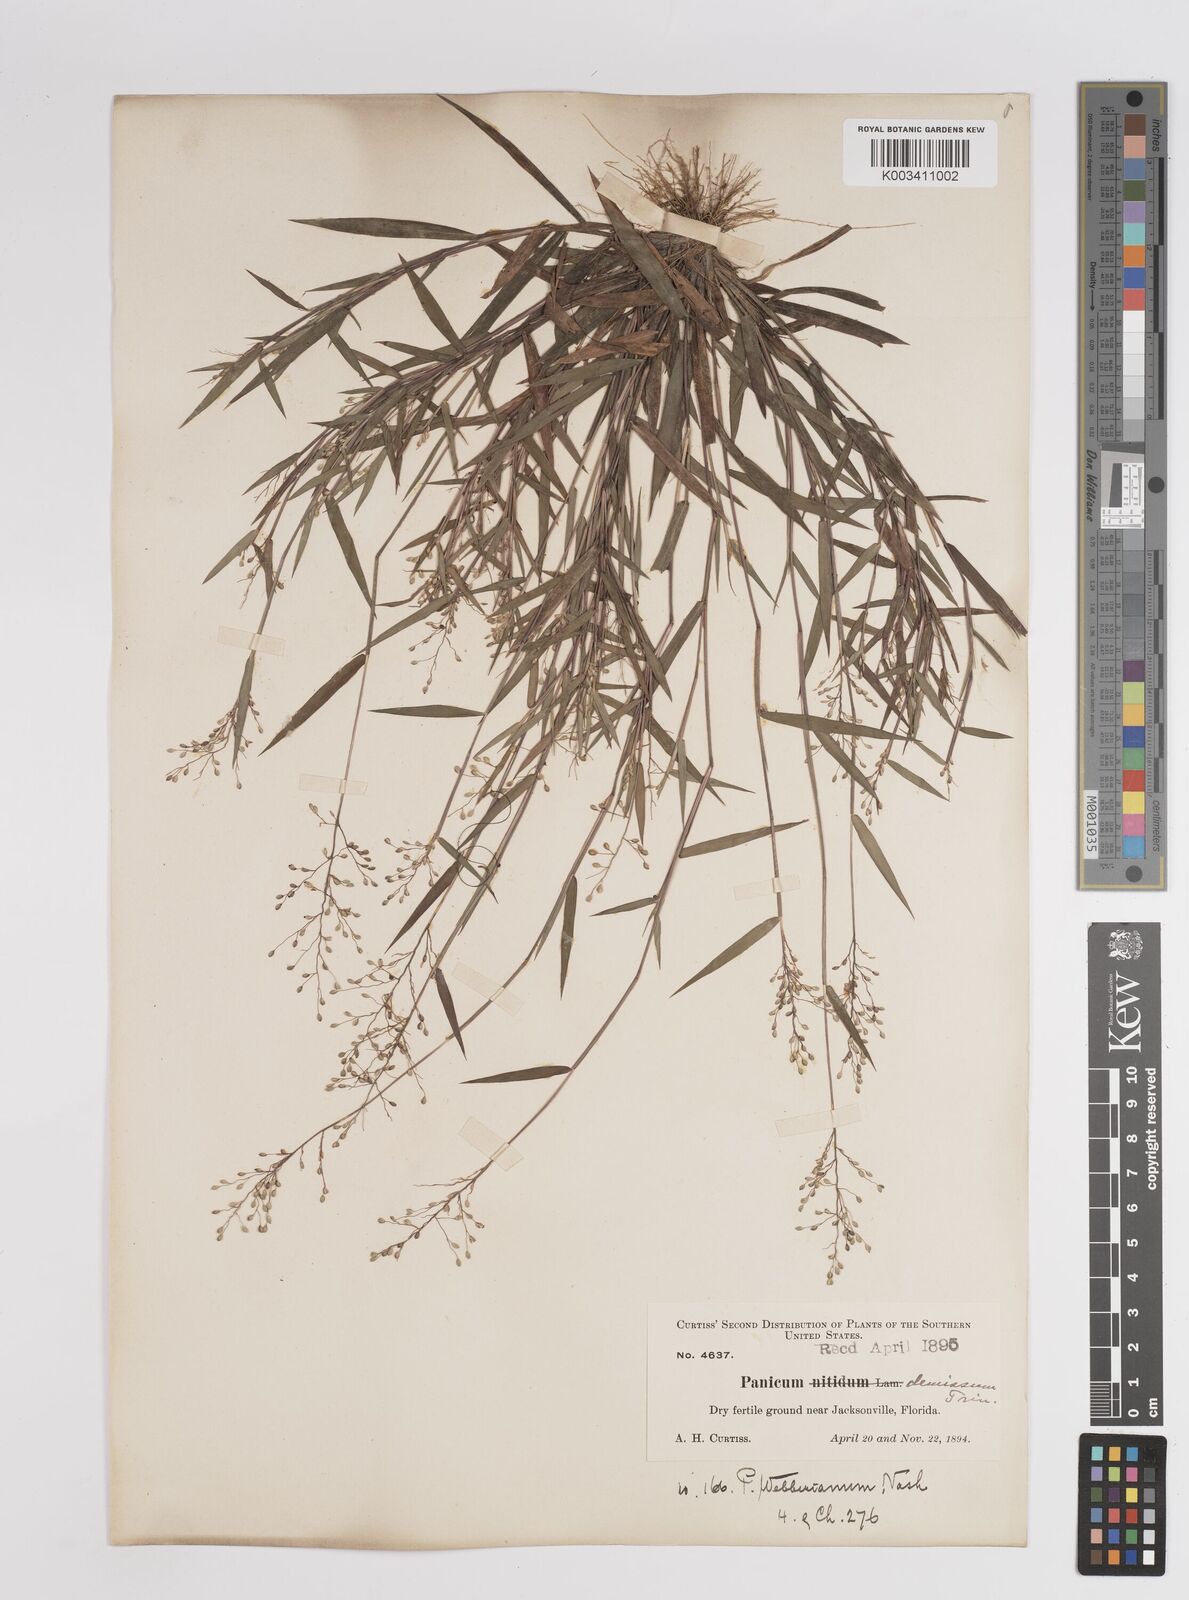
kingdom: Plantae
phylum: Tracheophyta
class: Liliopsida
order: Poales
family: Poaceae
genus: Dichanthelium
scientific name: Dichanthelium webberianum
